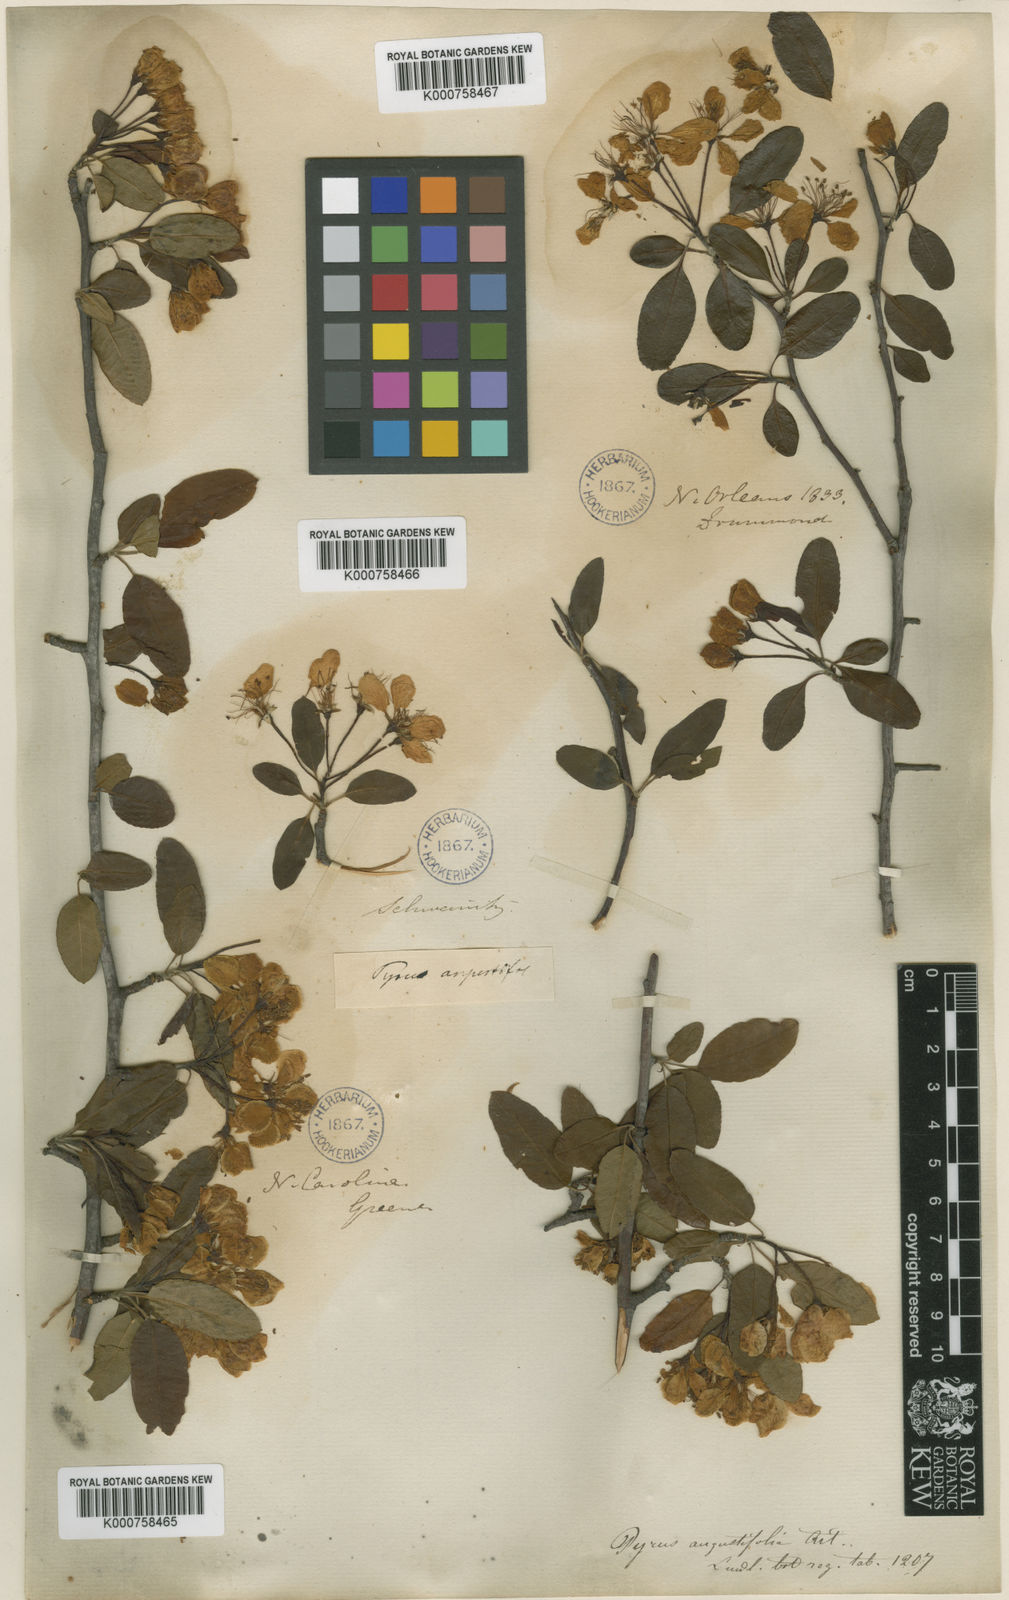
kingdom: Plantae
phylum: Tracheophyta
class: Magnoliopsida
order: Rosales
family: Rosaceae
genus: Malus
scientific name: Malus angustifolia
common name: Southern crab apple
